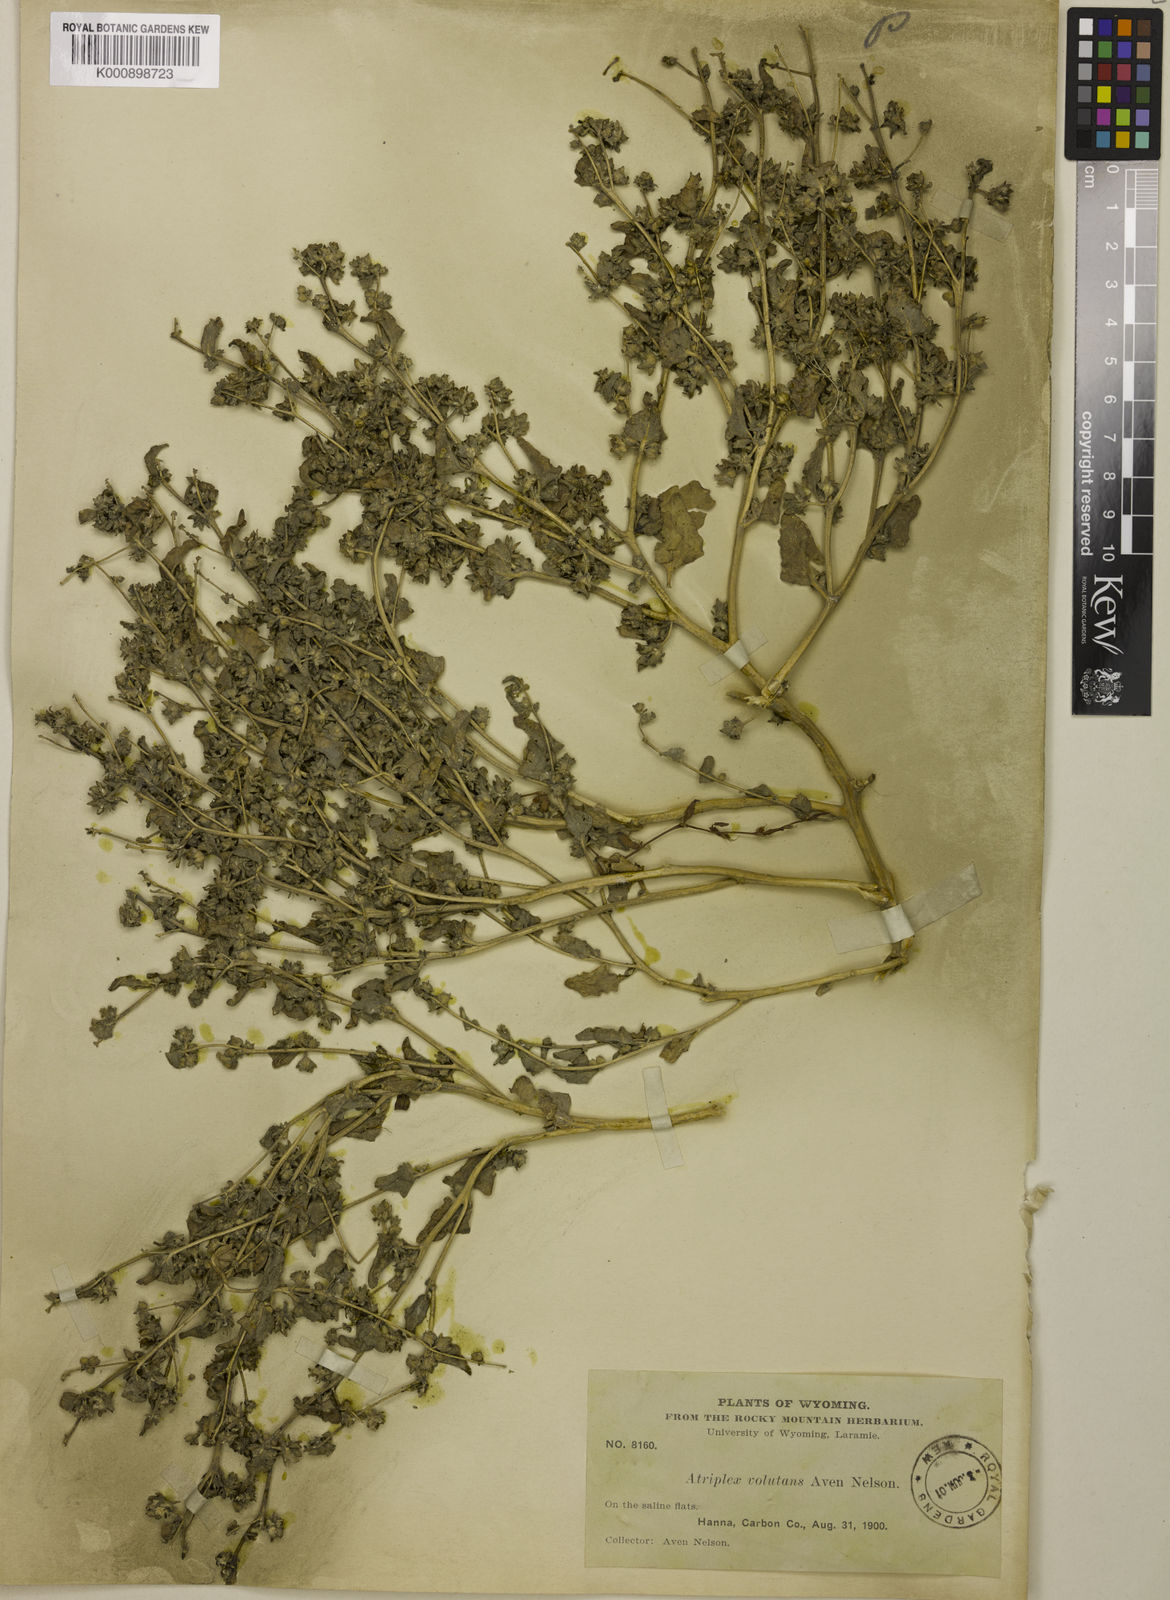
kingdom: Plantae
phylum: Tracheophyta
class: Magnoliopsida
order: Caryophyllales
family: Amaranthaceae
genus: Atriplex
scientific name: Atriplex argentea
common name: Silverscale
